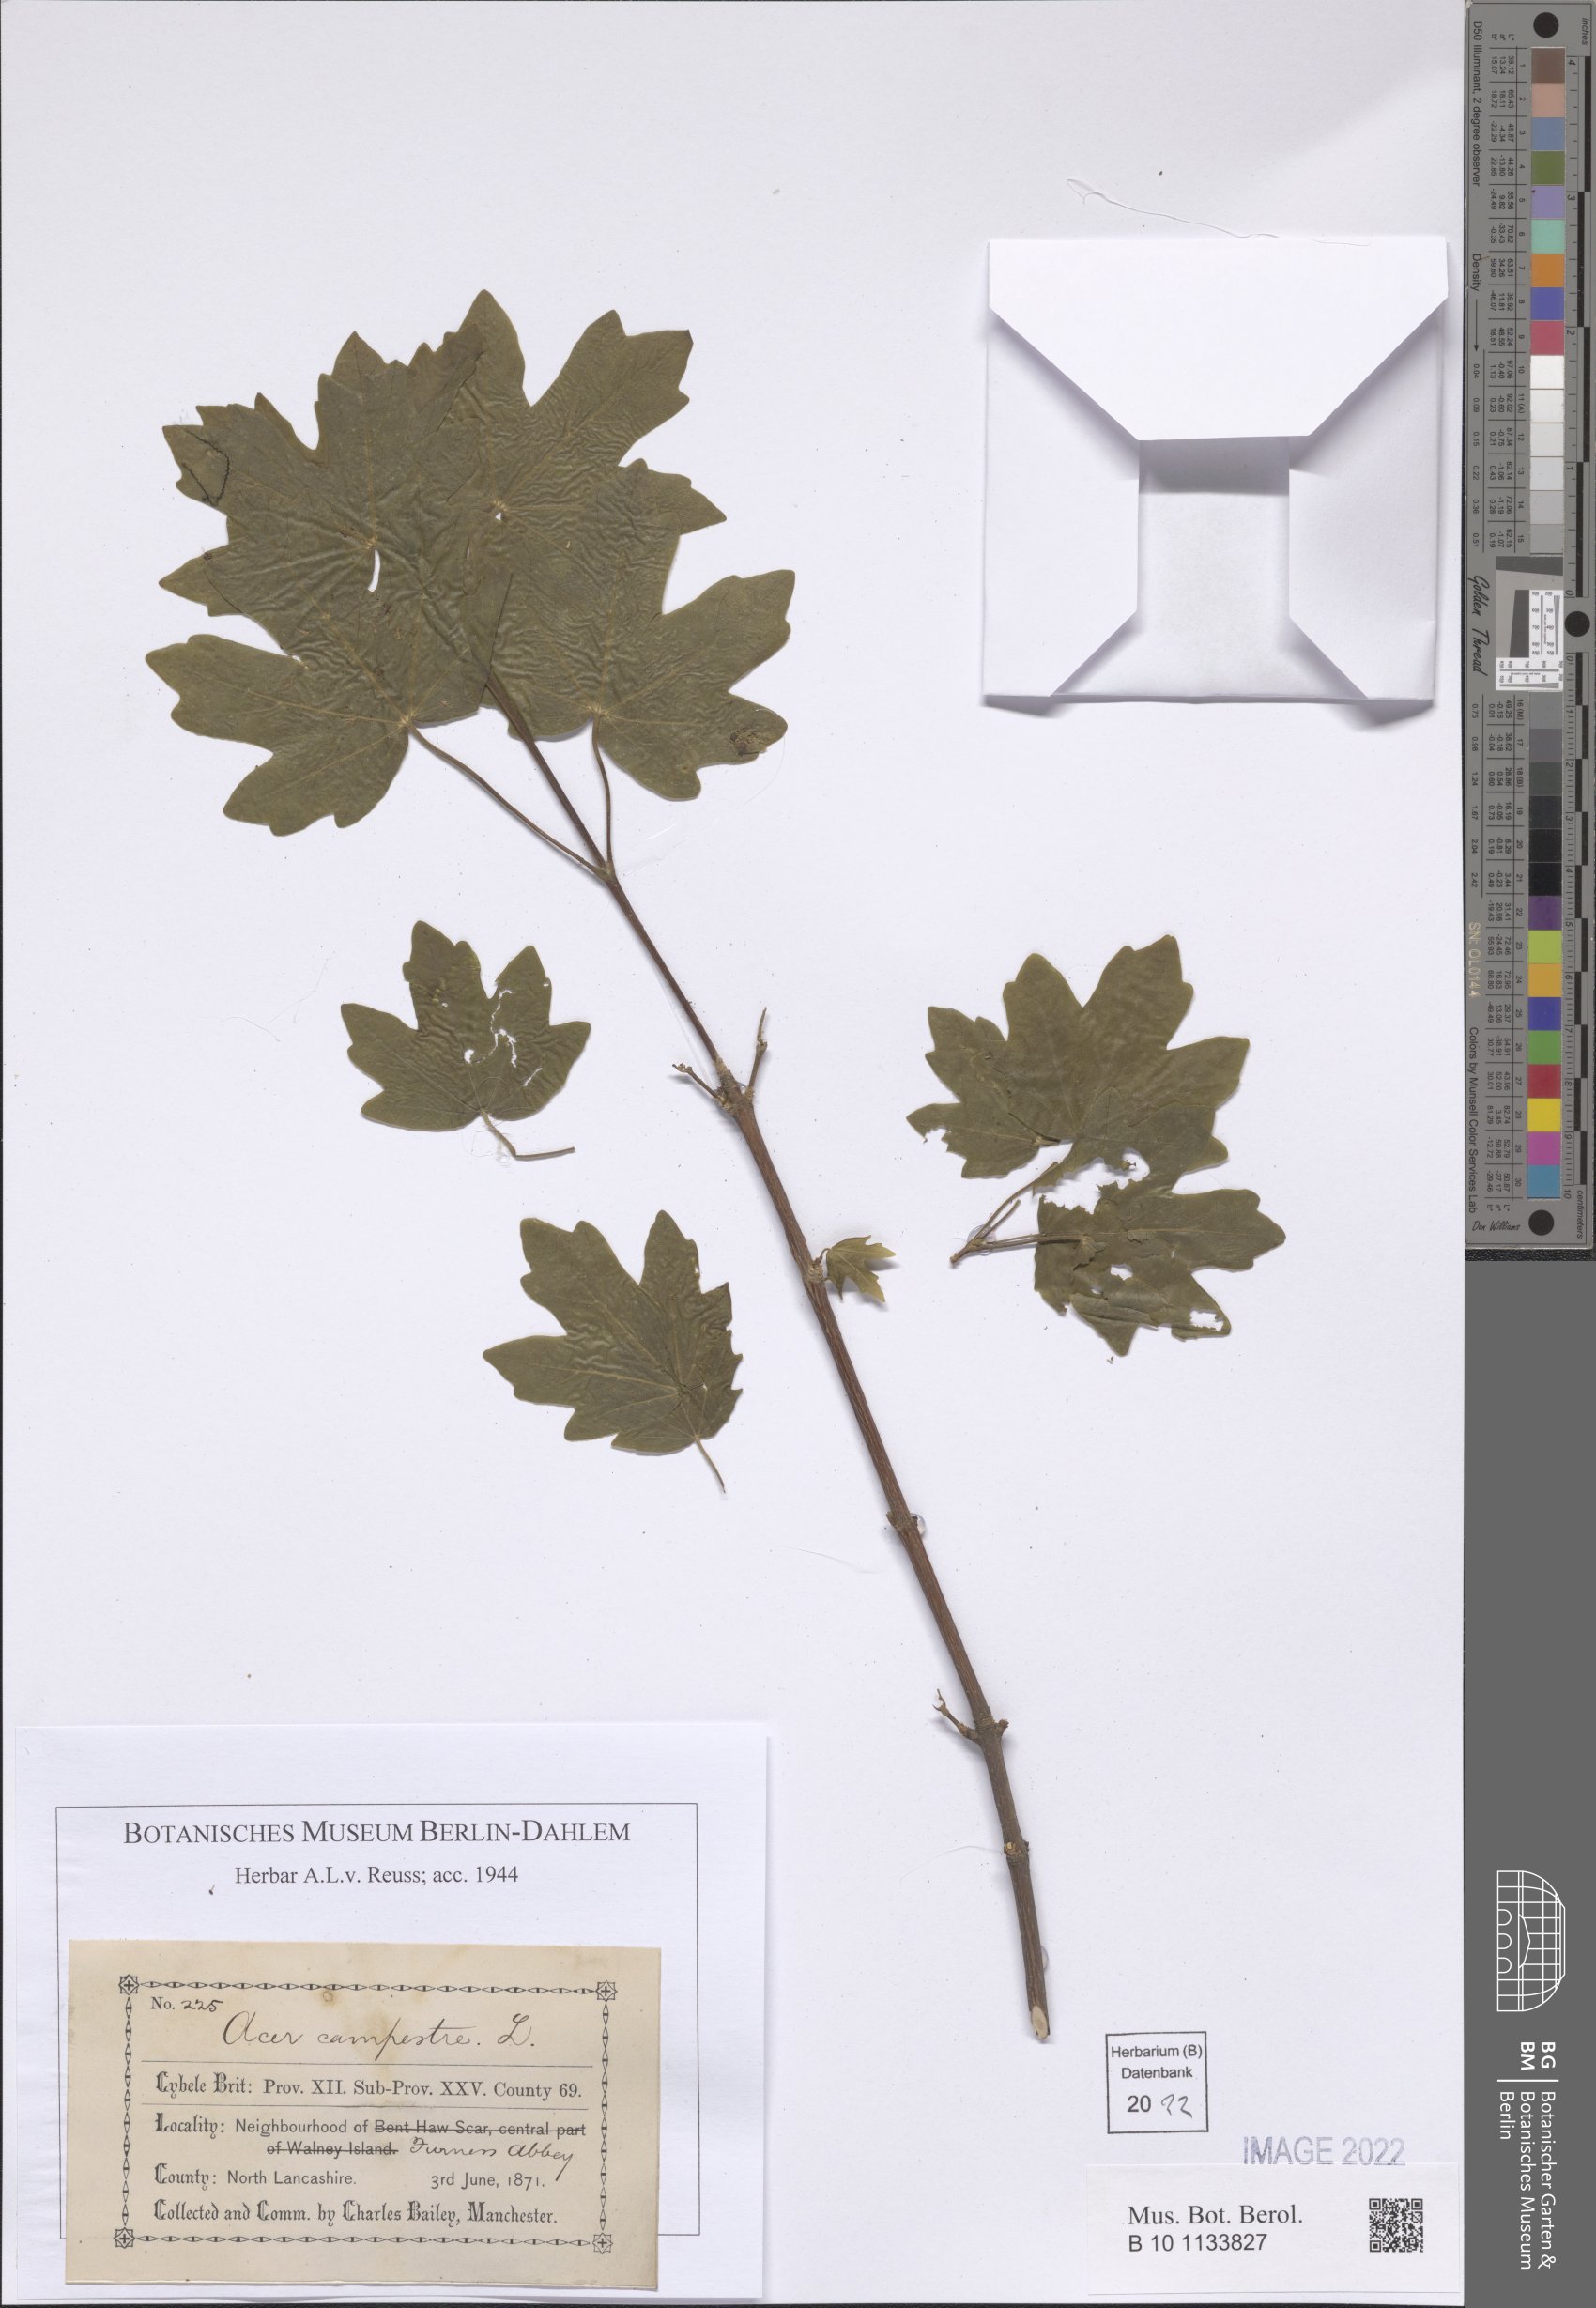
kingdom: Plantae
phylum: Tracheophyta
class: Magnoliopsida
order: Sapindales
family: Sapindaceae
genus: Acer
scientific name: Acer campestre
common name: Field maple
